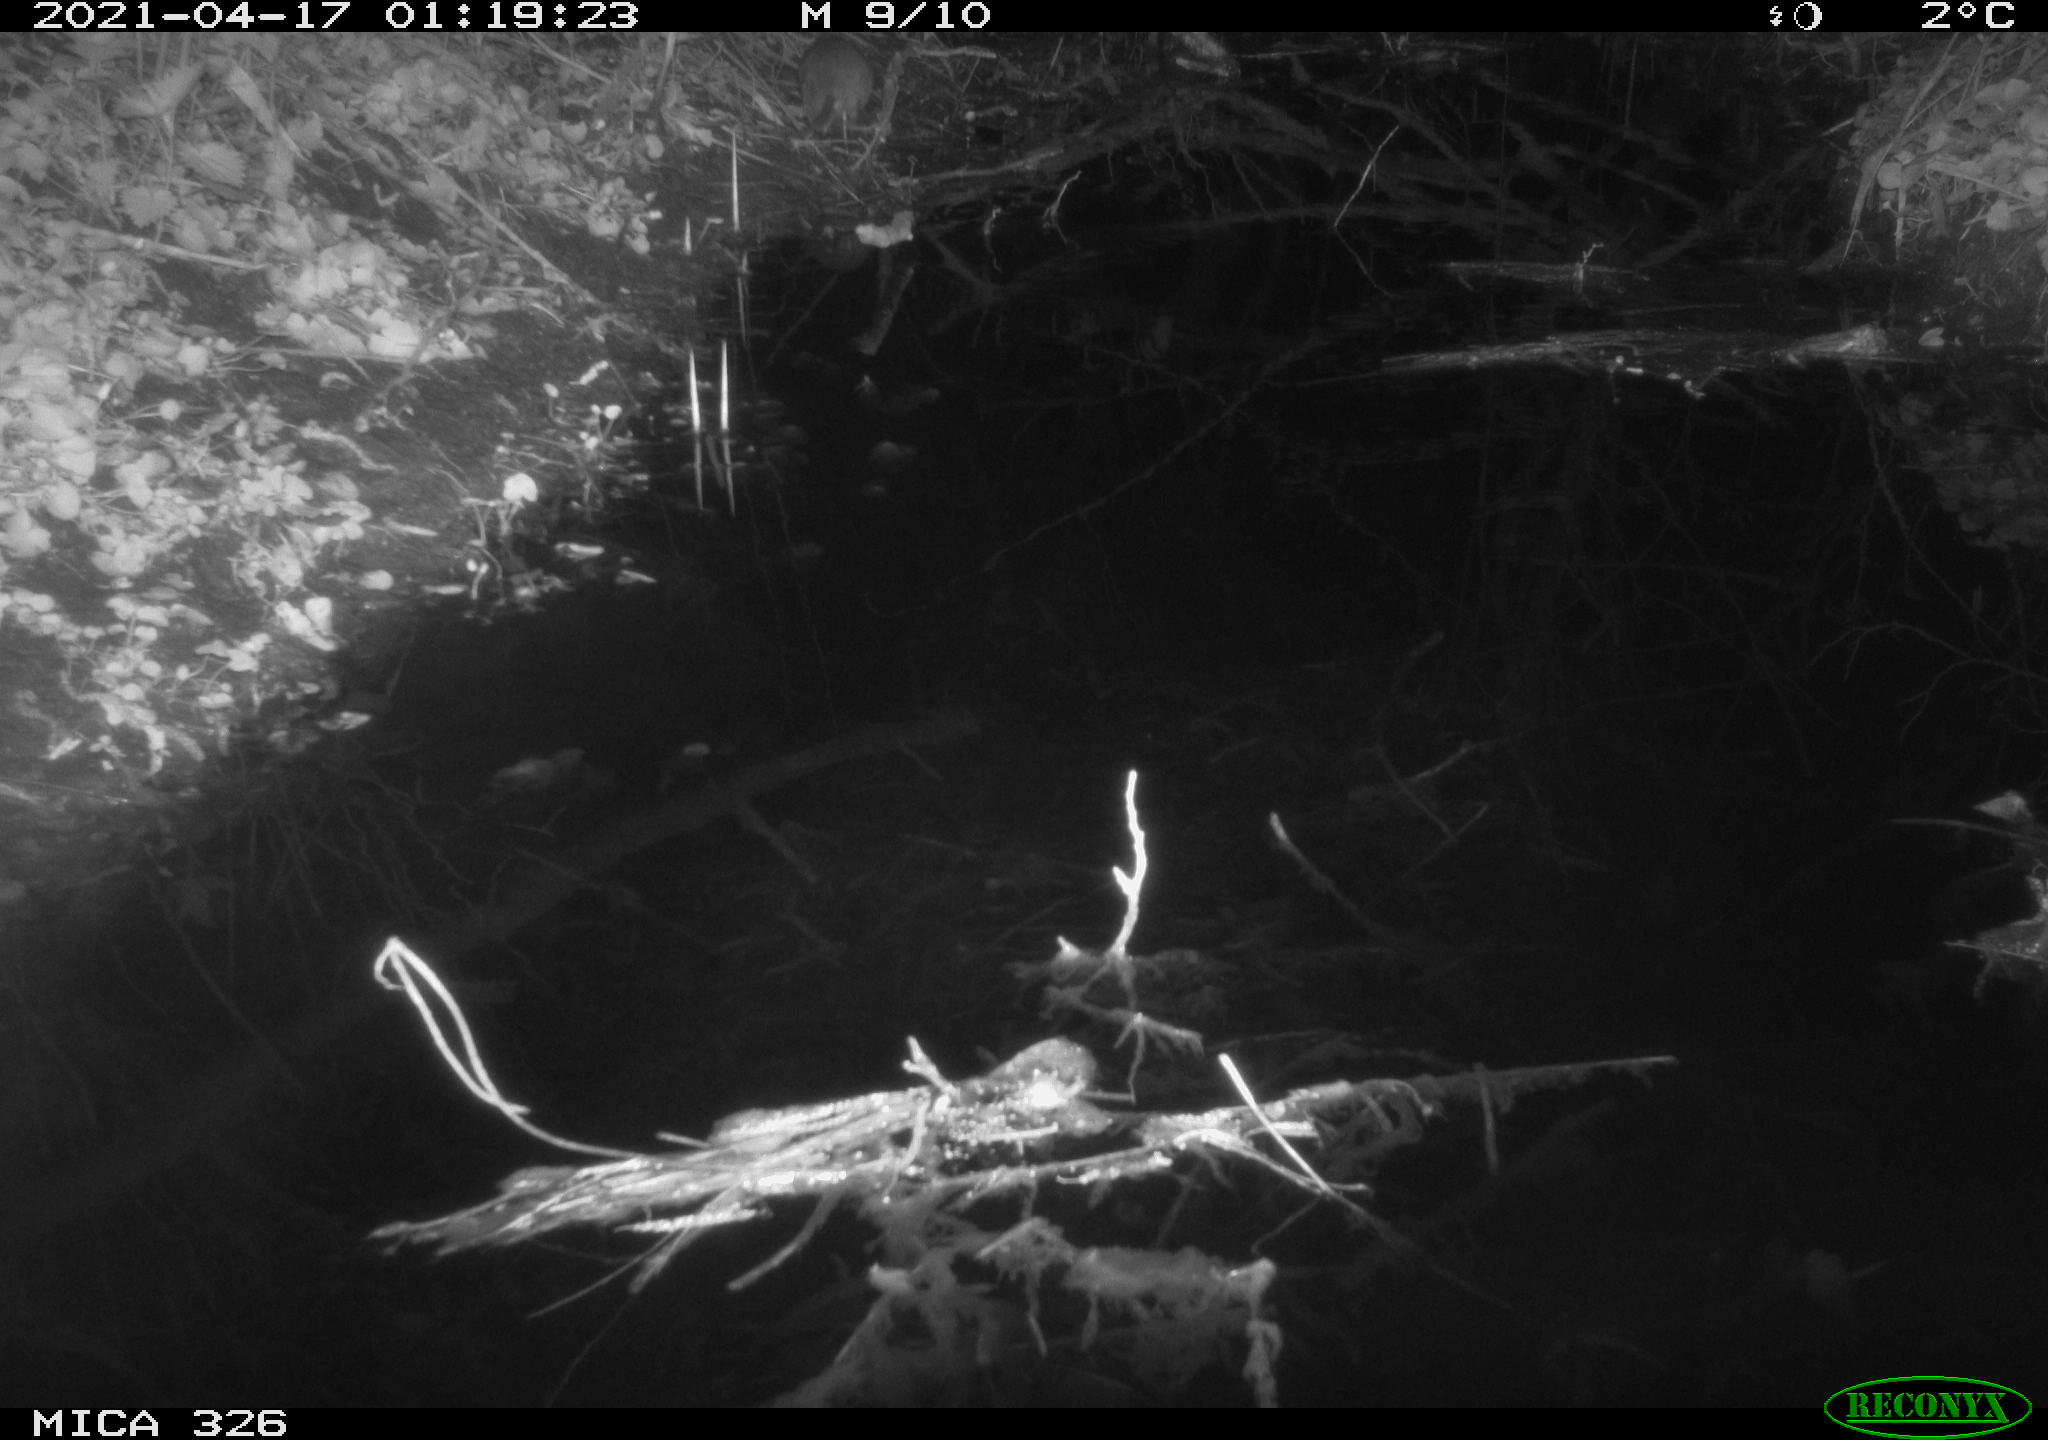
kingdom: Animalia
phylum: Chordata
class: Mammalia
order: Rodentia
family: Muridae
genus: Rattus
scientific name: Rattus norvegicus
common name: Brown rat
